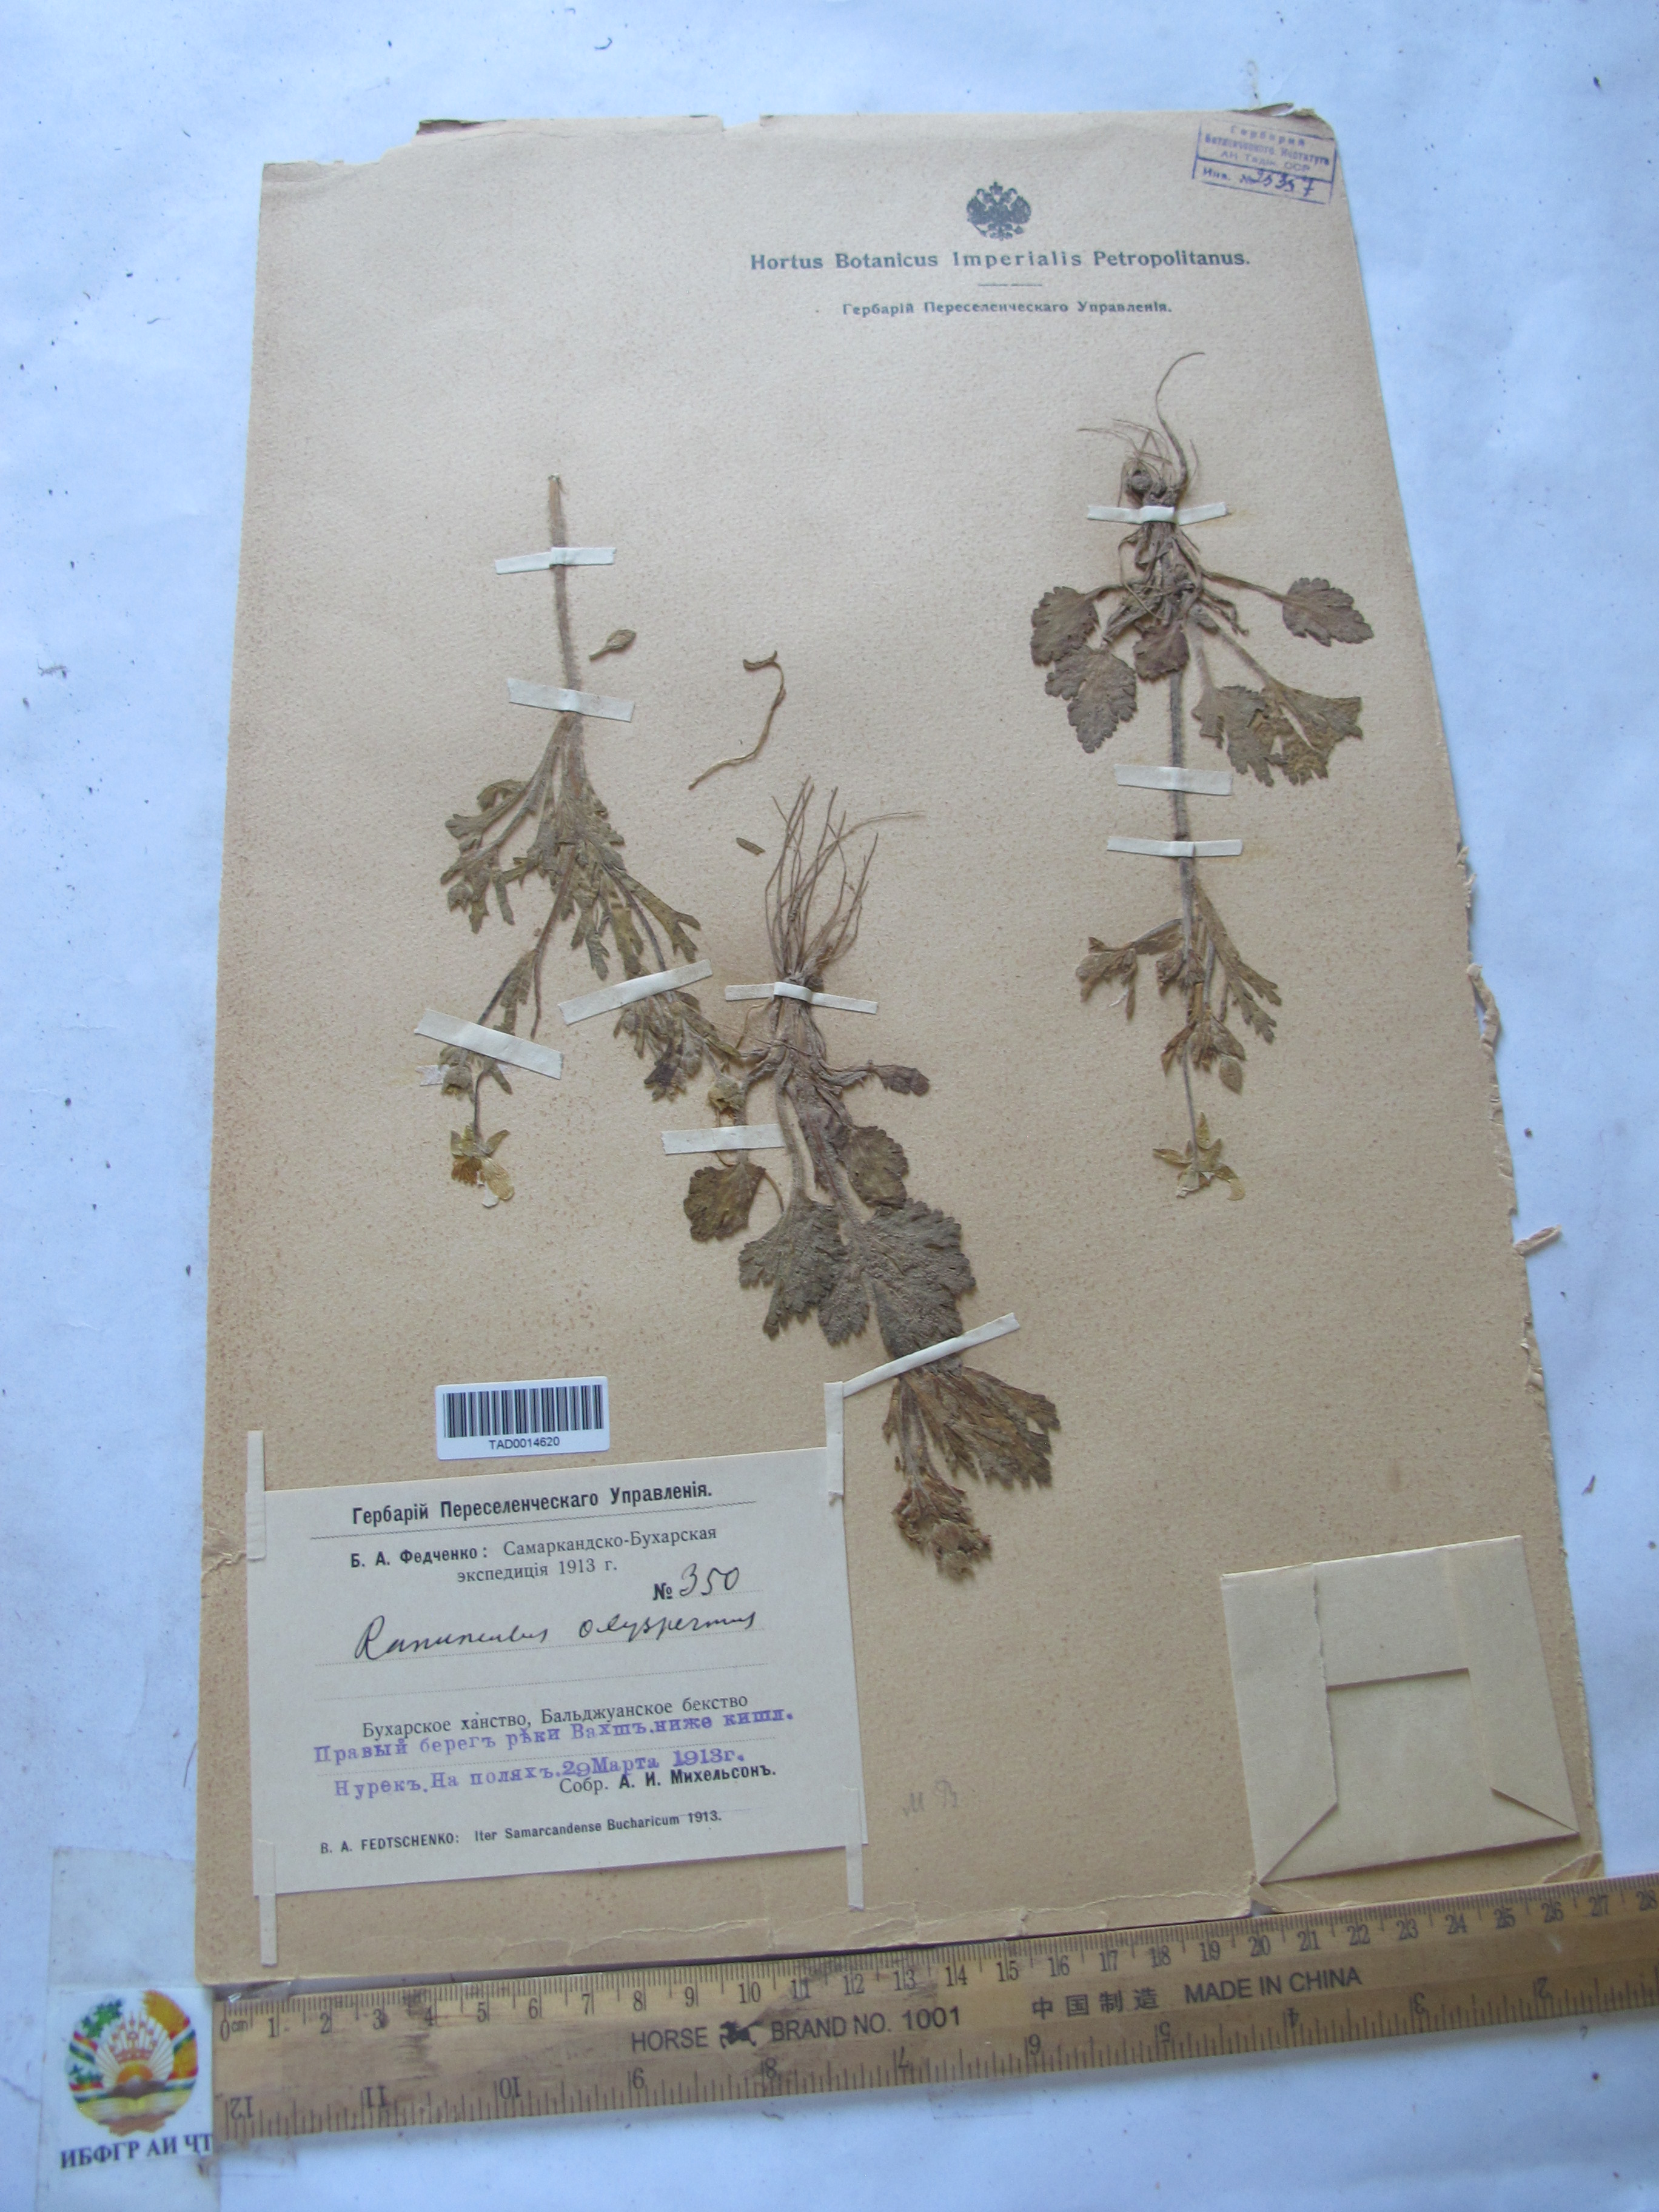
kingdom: Plantae
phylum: Tracheophyta
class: Magnoliopsida
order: Ranunculales
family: Ranunculaceae
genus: Ranunculus
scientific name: Ranunculus oxyspermus
